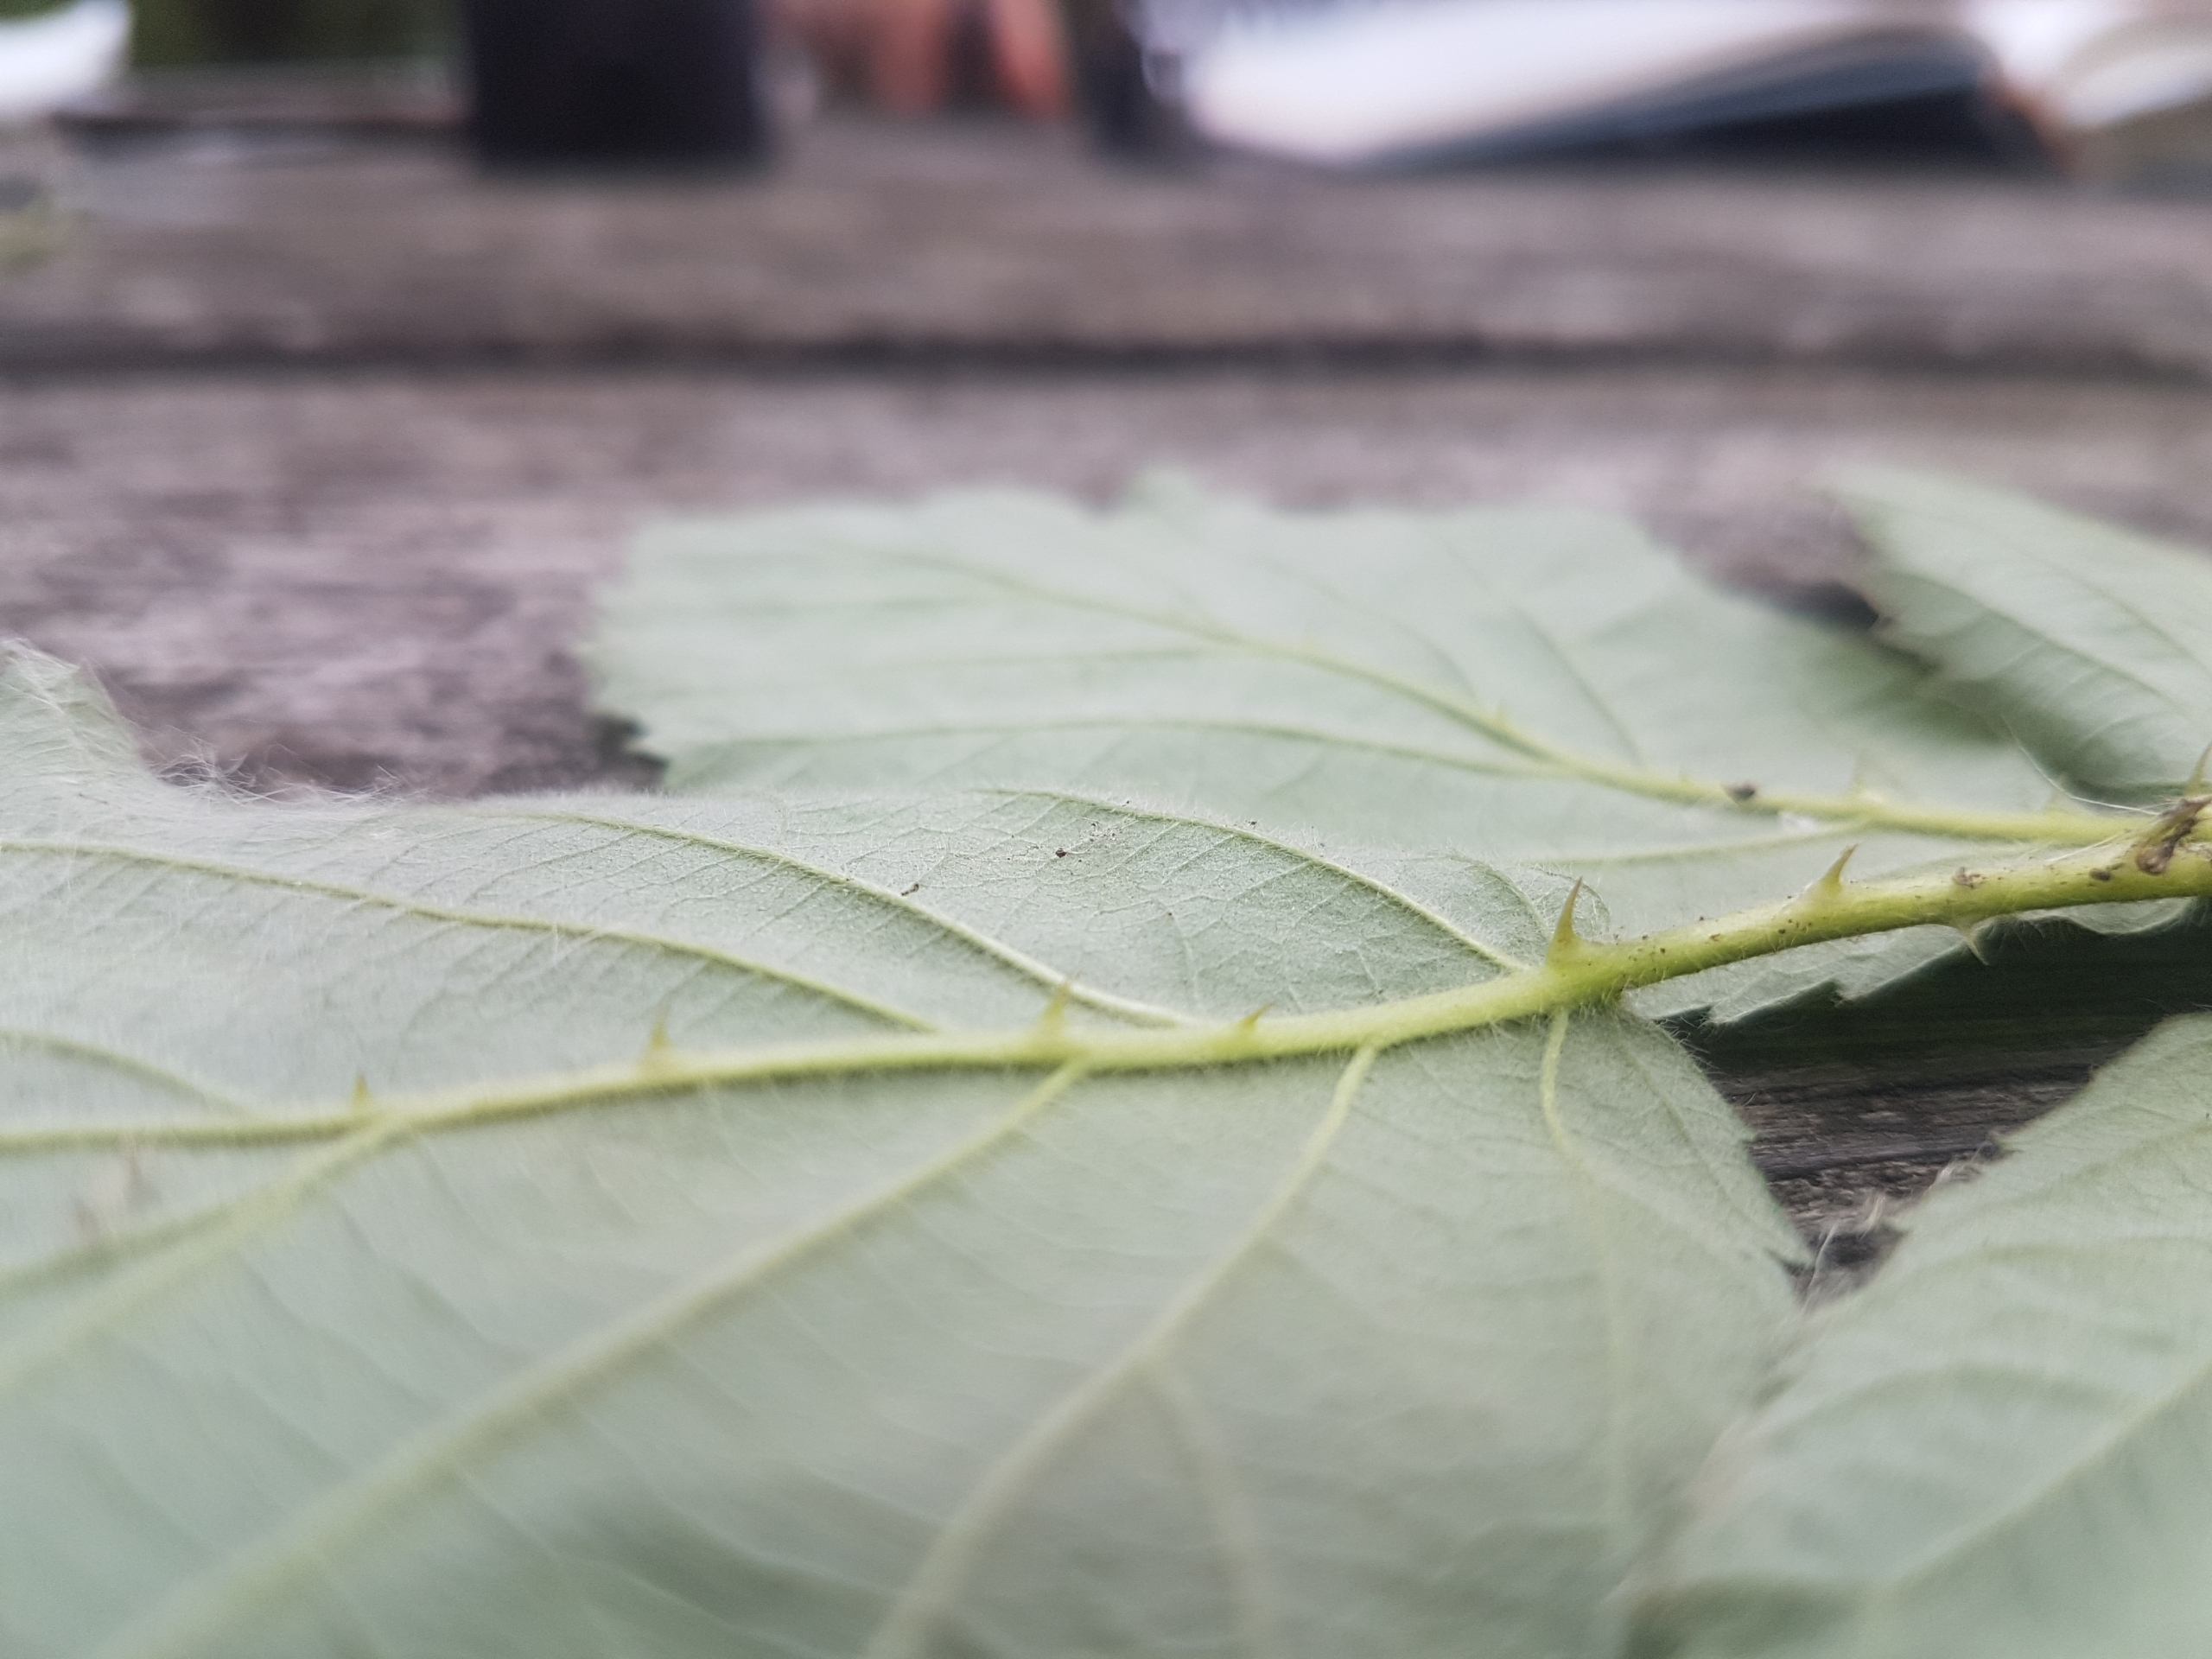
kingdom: Plantae
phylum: Tracheophyta
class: Magnoliopsida
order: Rosales
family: Rosaceae
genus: Rubus
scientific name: Rubus armeniacus
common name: Armensk brombær
